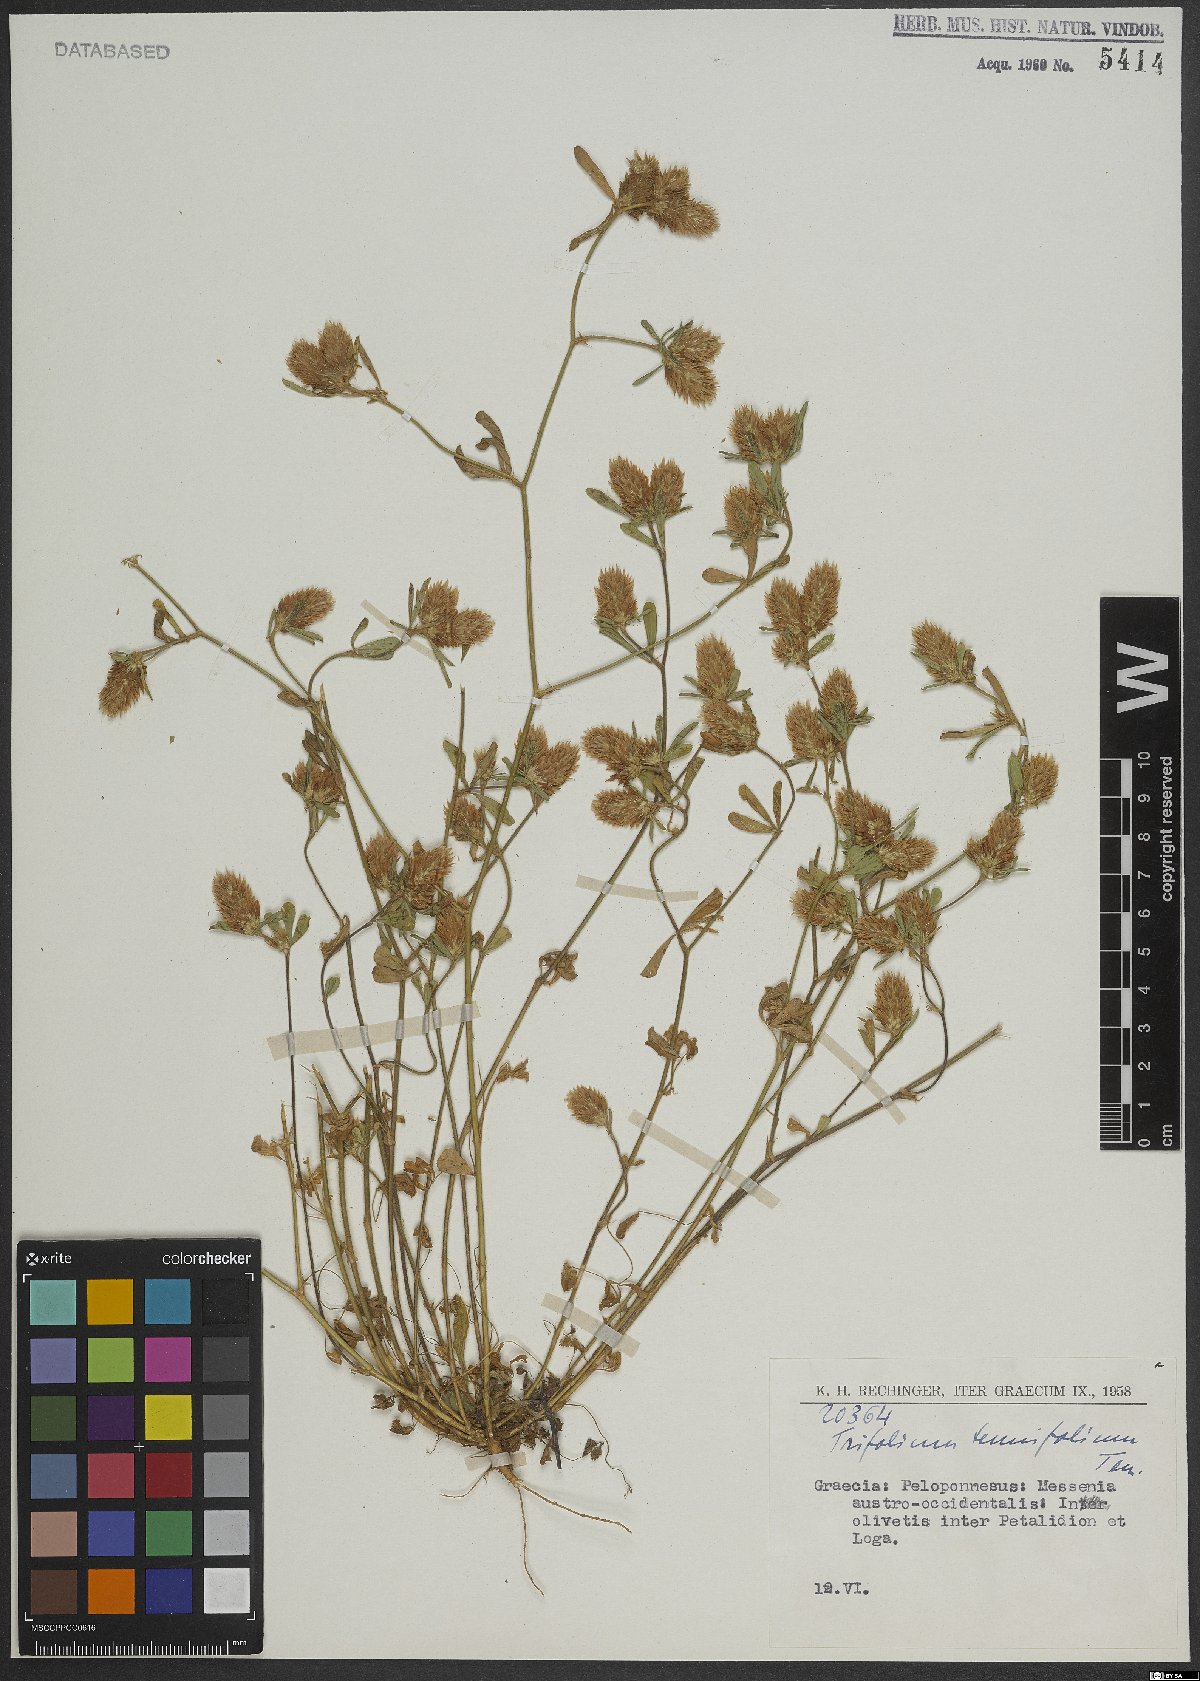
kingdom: Plantae
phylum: Tracheophyta
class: Magnoliopsida
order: Fabales
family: Fabaceae
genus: Trifolium
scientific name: Trifolium tenuifolium
